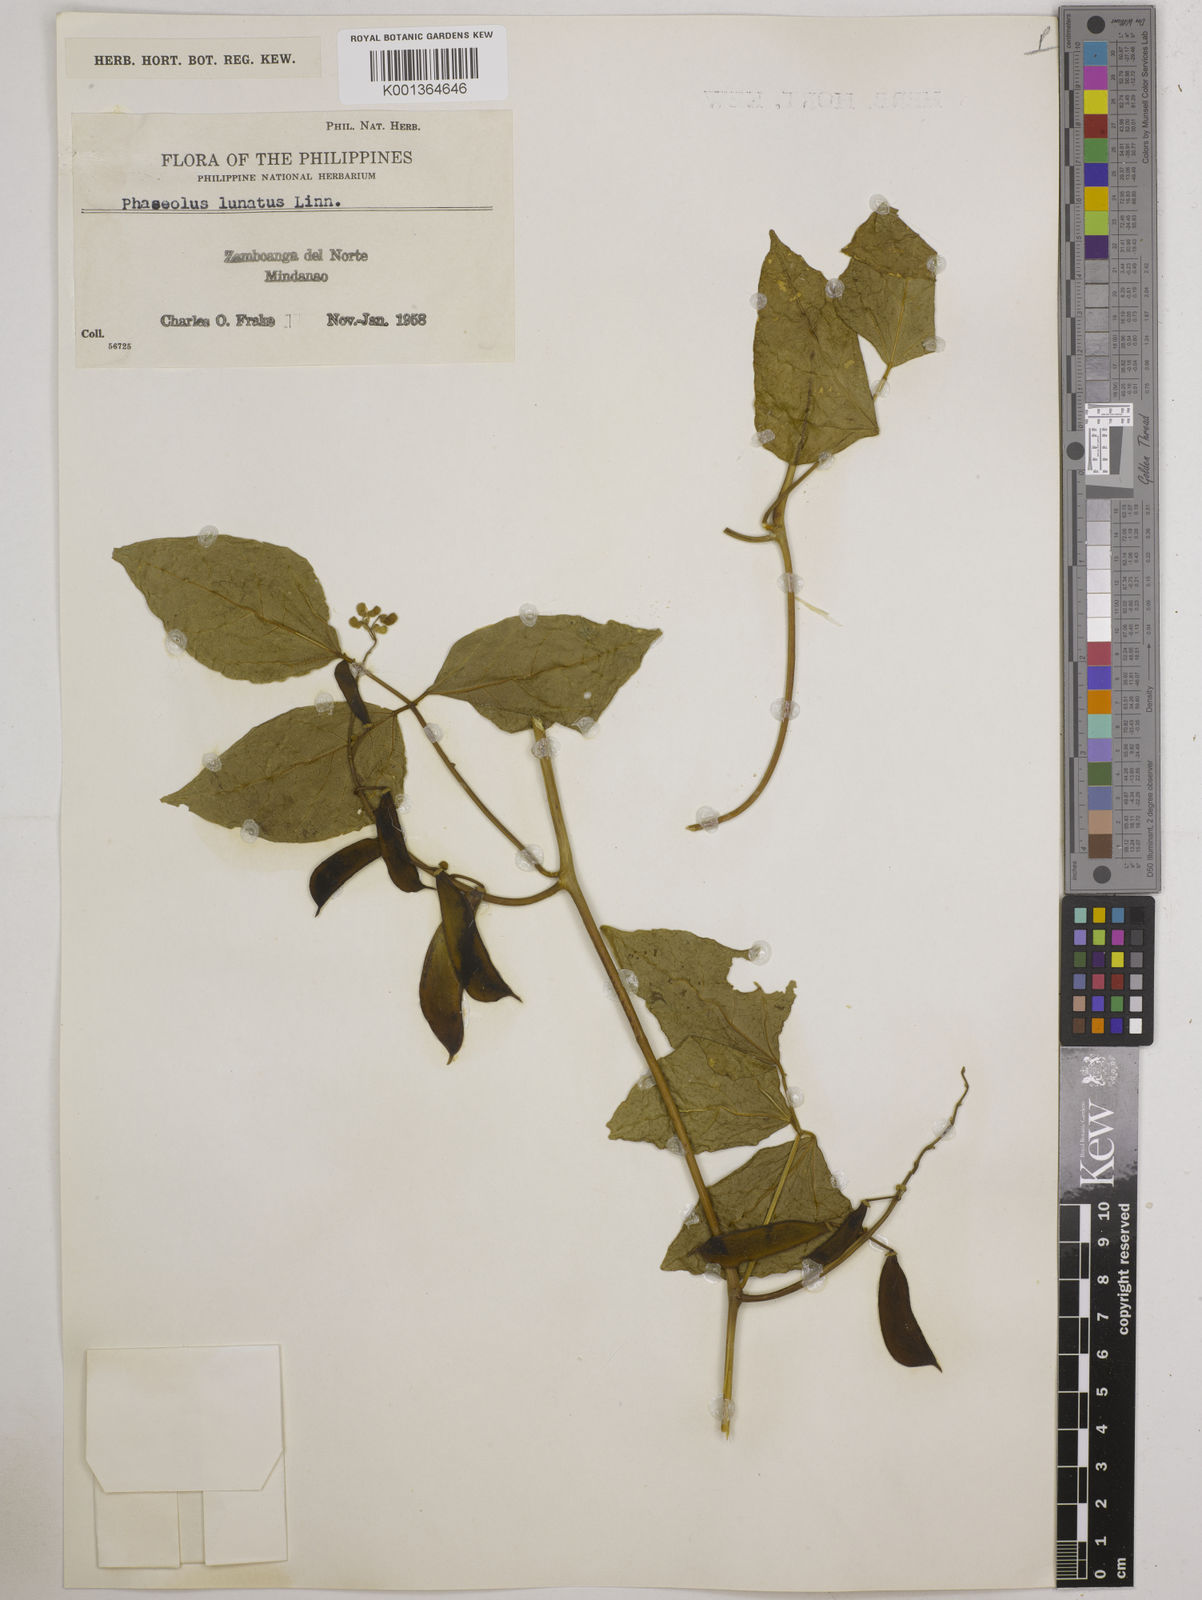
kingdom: Plantae
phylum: Tracheophyta
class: Magnoliopsida
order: Fabales
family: Fabaceae
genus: Phaseolus
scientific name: Phaseolus lunatus
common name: Sieva bean
